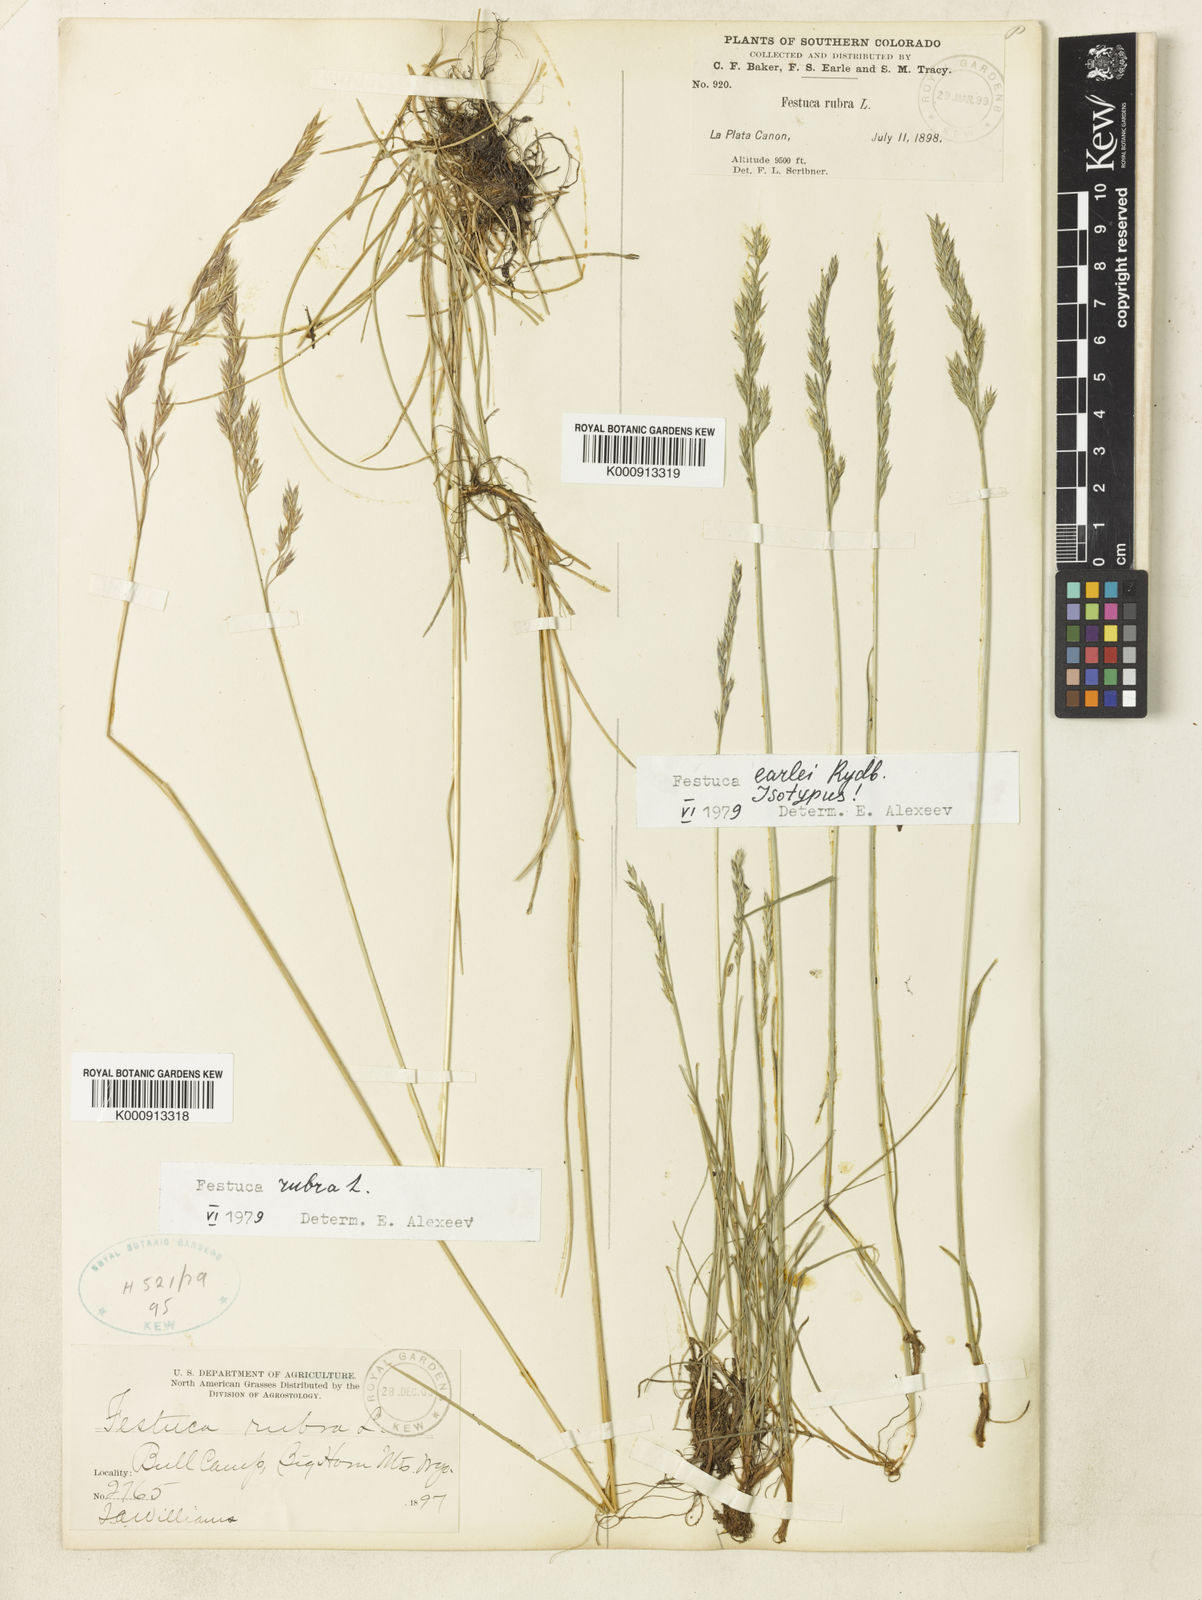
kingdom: Plantae
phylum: Tracheophyta
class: Liliopsida
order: Poales
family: Poaceae
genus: Festuca
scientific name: Festuca earlei
